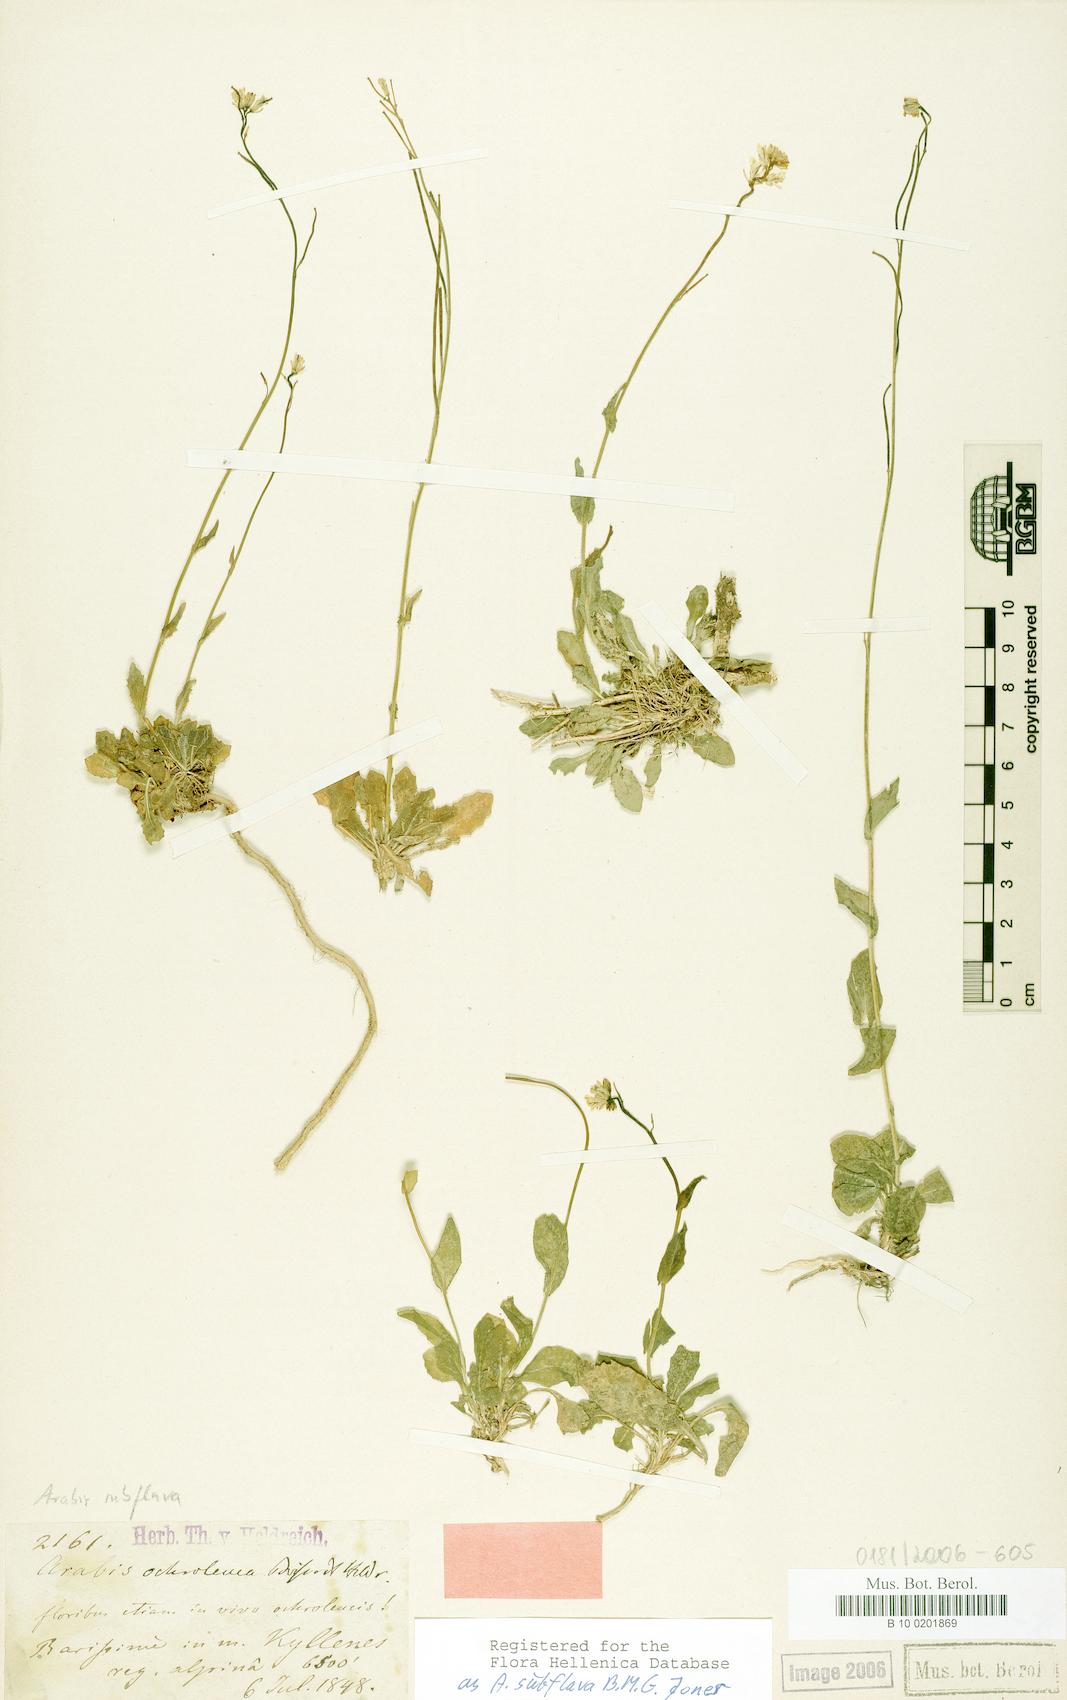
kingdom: Plantae
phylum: Tracheophyta
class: Magnoliopsida
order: Brassicales
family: Brassicaceae
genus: Arabis
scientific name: Arabis subflava
